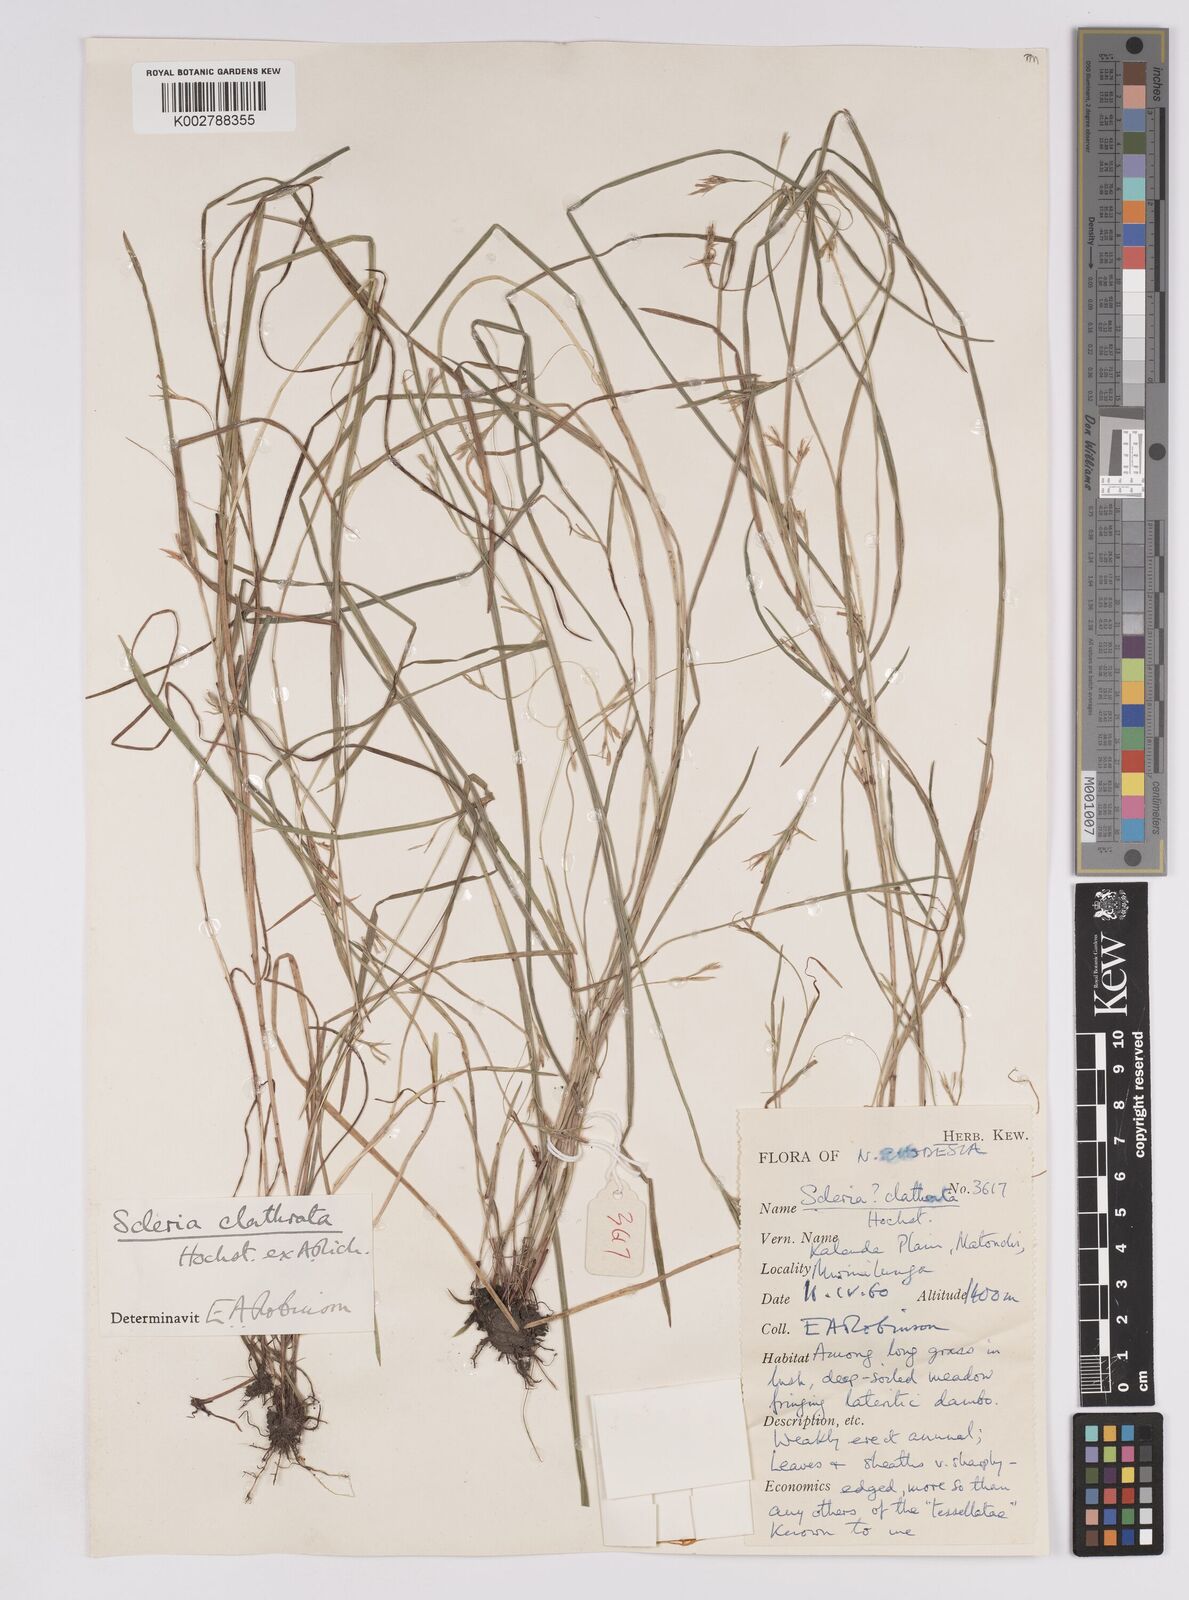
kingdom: Plantae
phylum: Tracheophyta
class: Liliopsida
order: Poales
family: Cyperaceae
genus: Scleria
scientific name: Scleria clathrata
